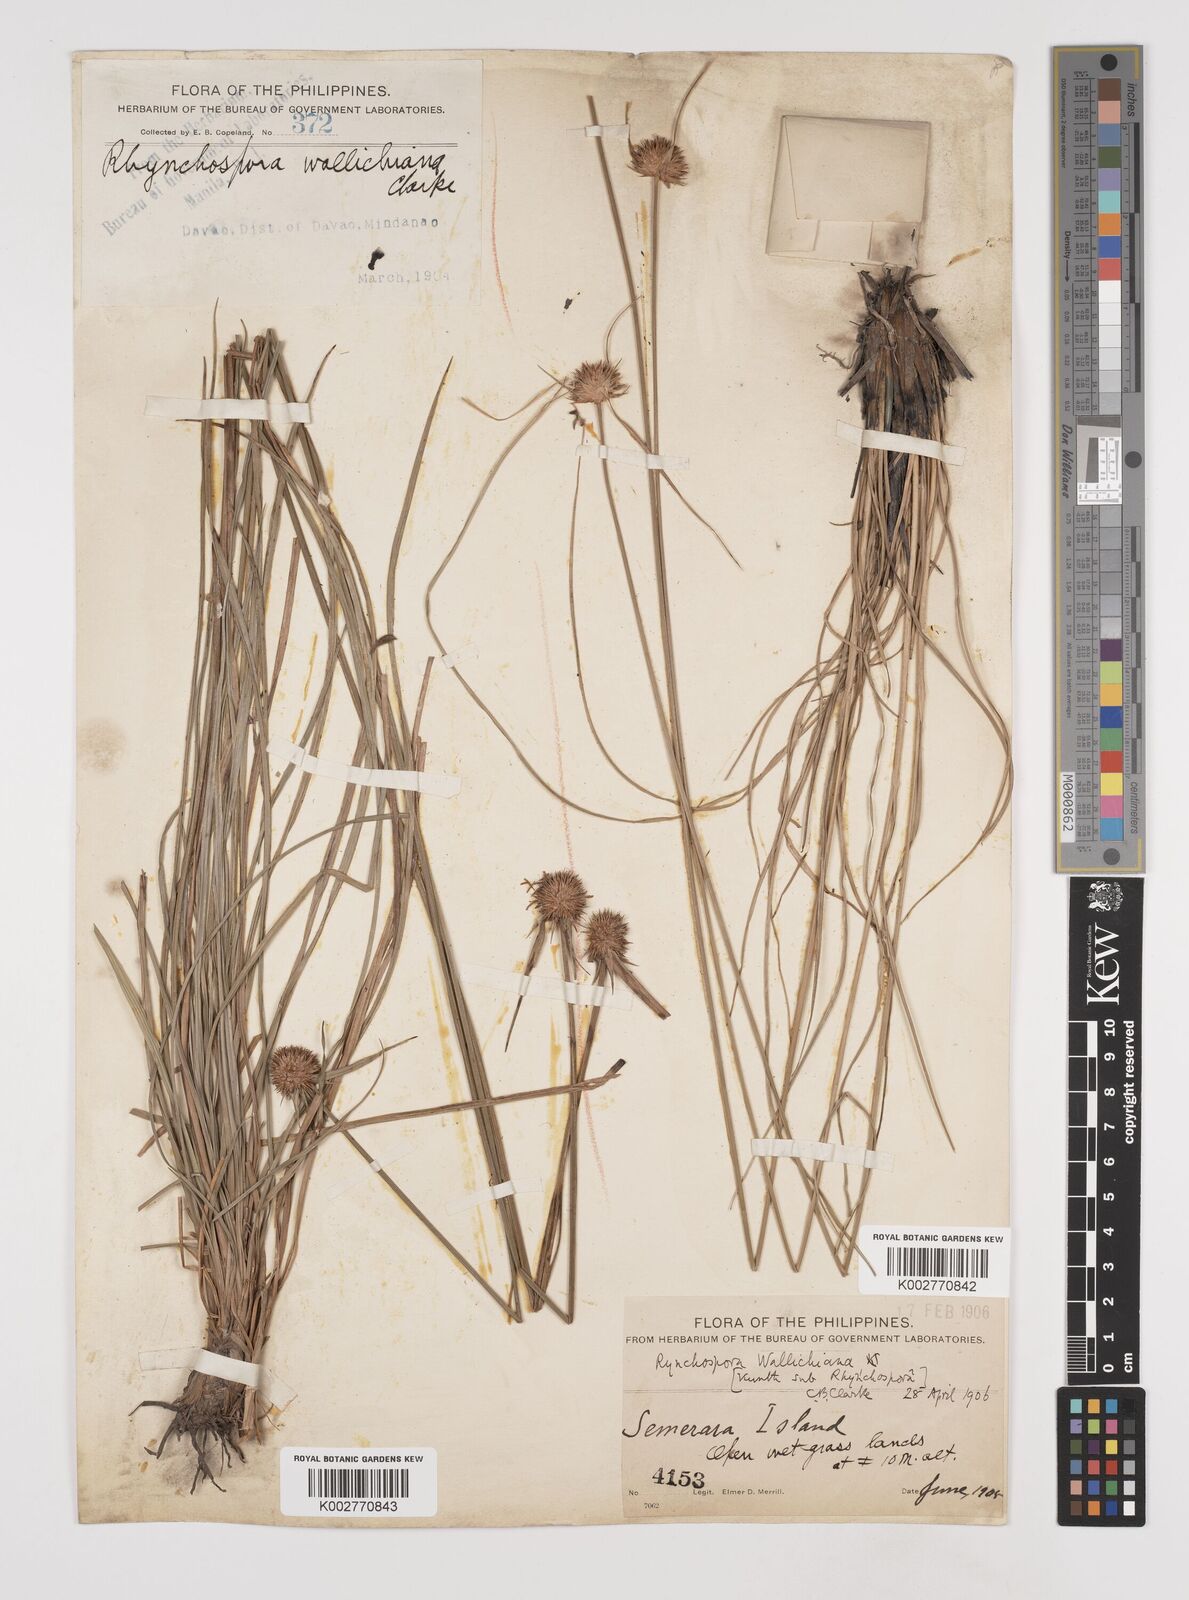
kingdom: Plantae
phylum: Tracheophyta
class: Liliopsida
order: Poales
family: Cyperaceae
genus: Rhynchospora
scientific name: Rhynchospora rubra
